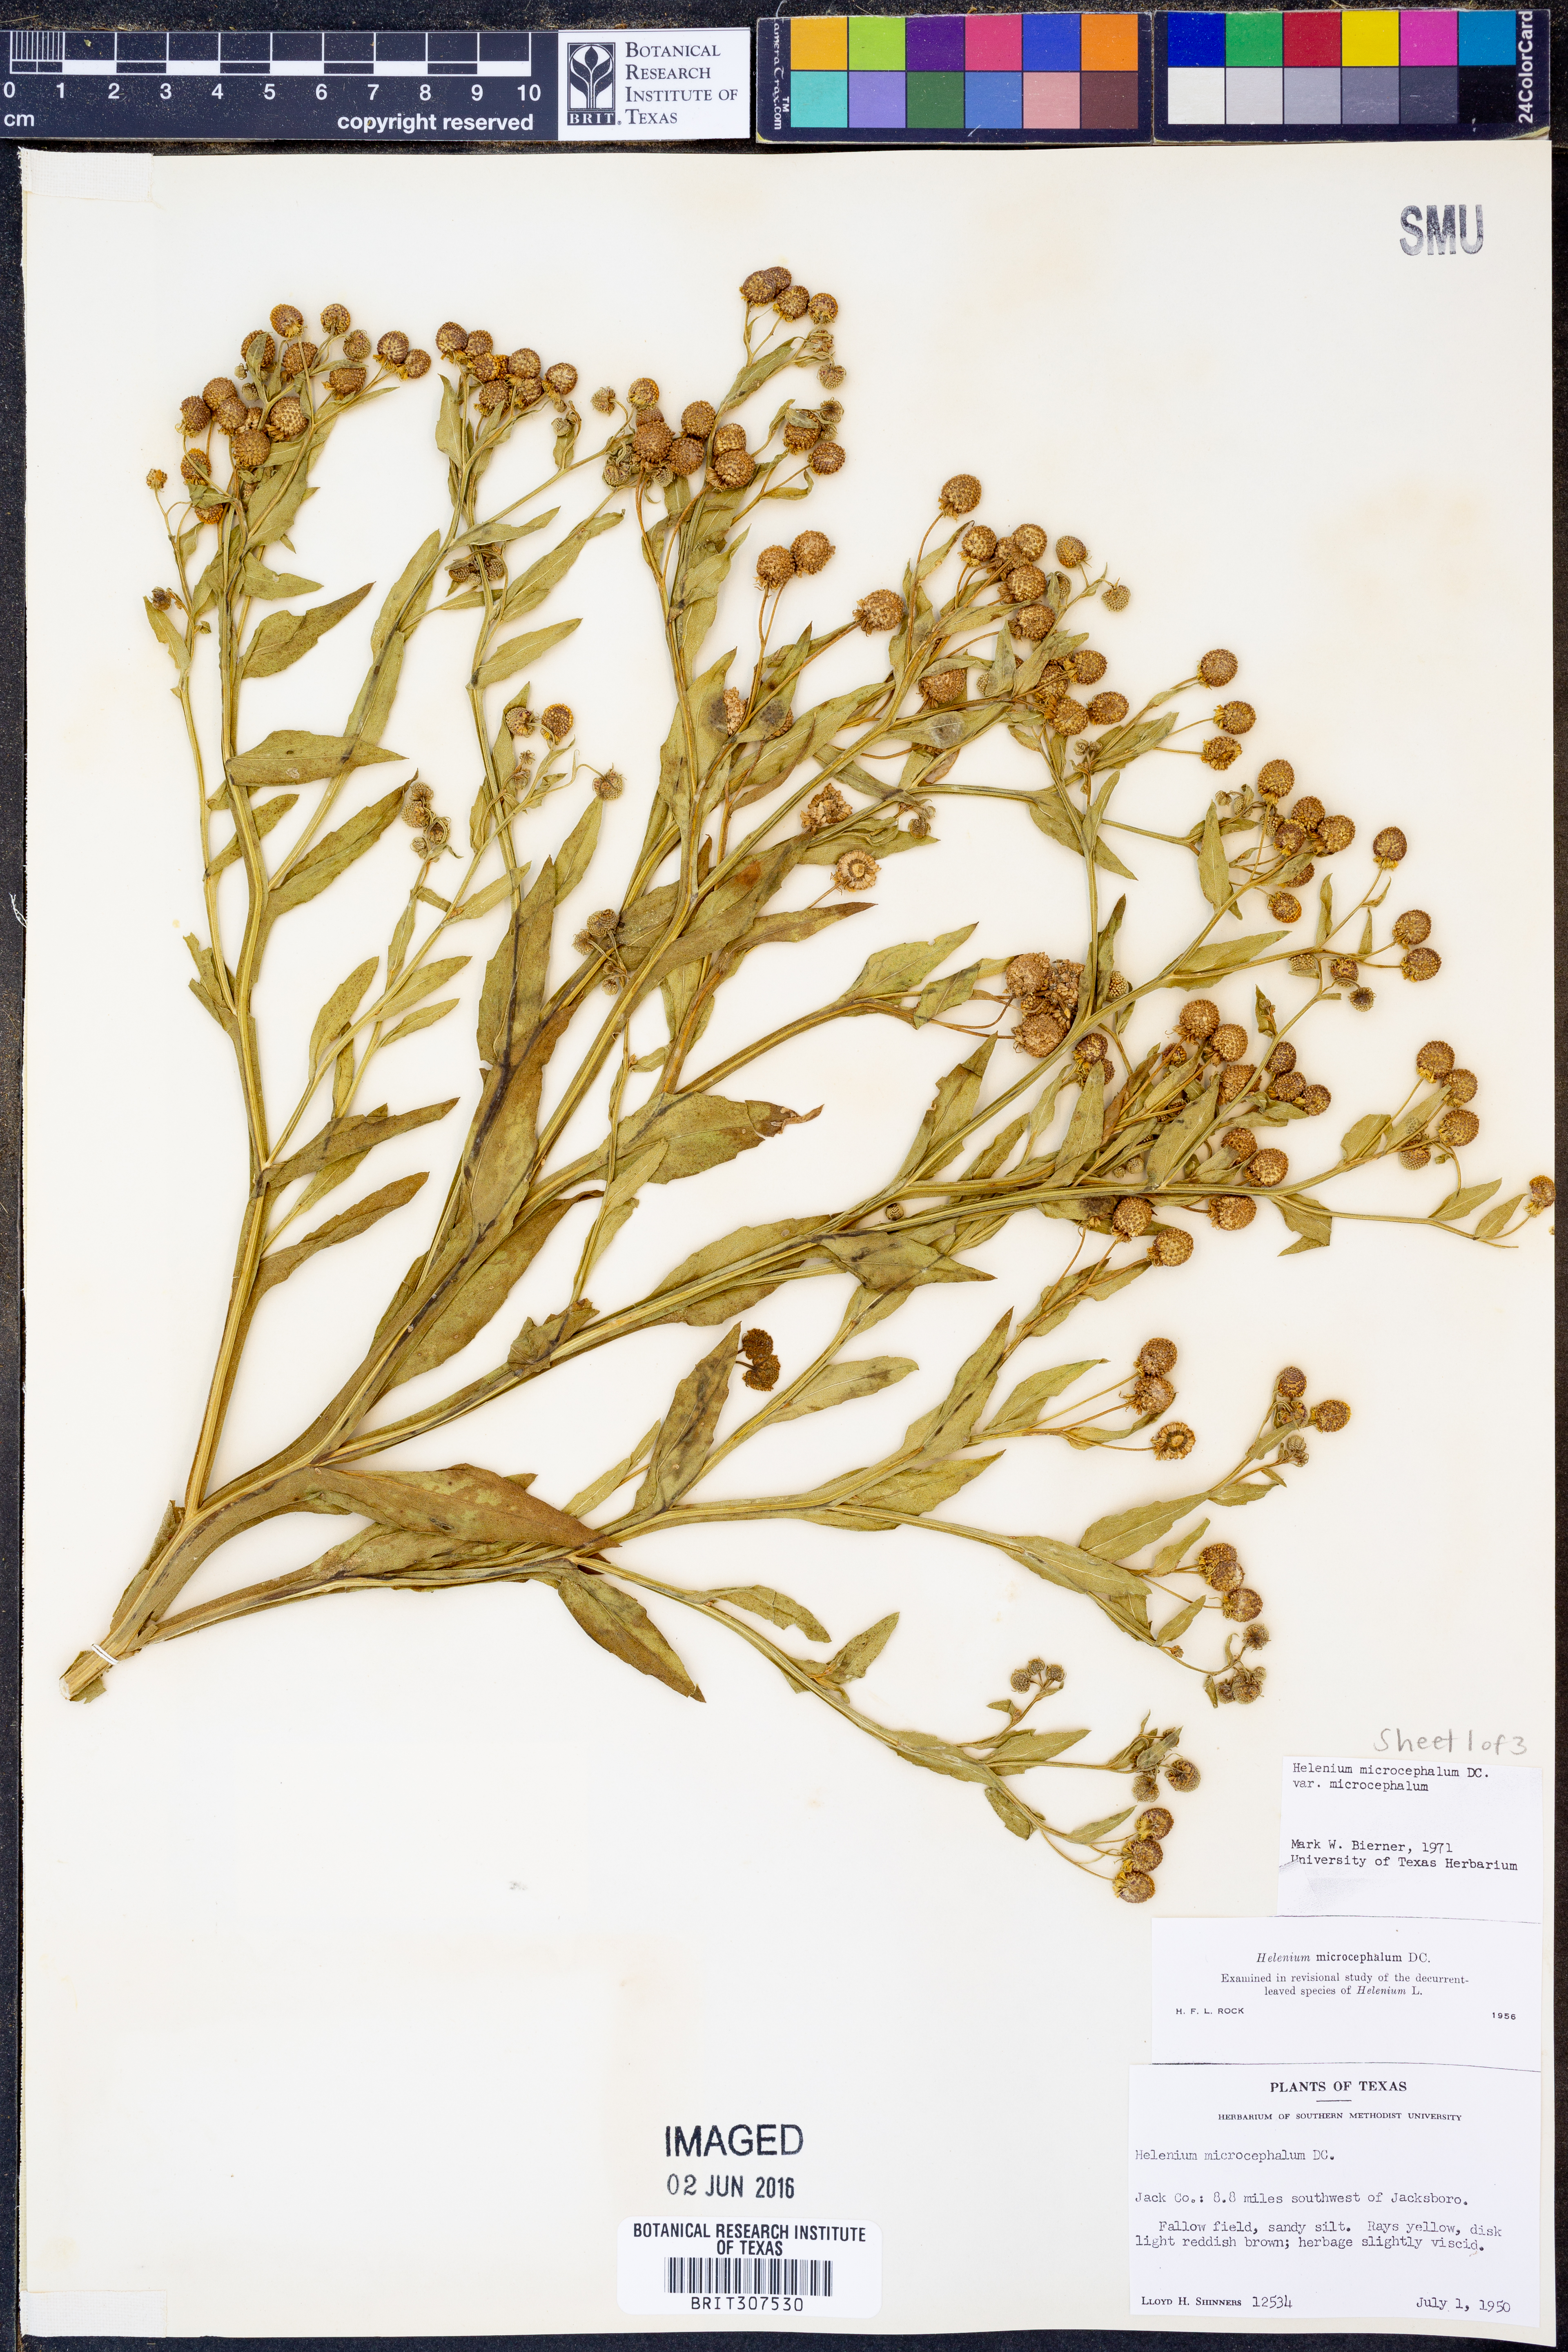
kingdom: Plantae
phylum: Tracheophyta
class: Magnoliopsida
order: Asterales
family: Asteraceae
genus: Helenium
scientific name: Helenium microcephalum
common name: Smallhead sneezeweed
